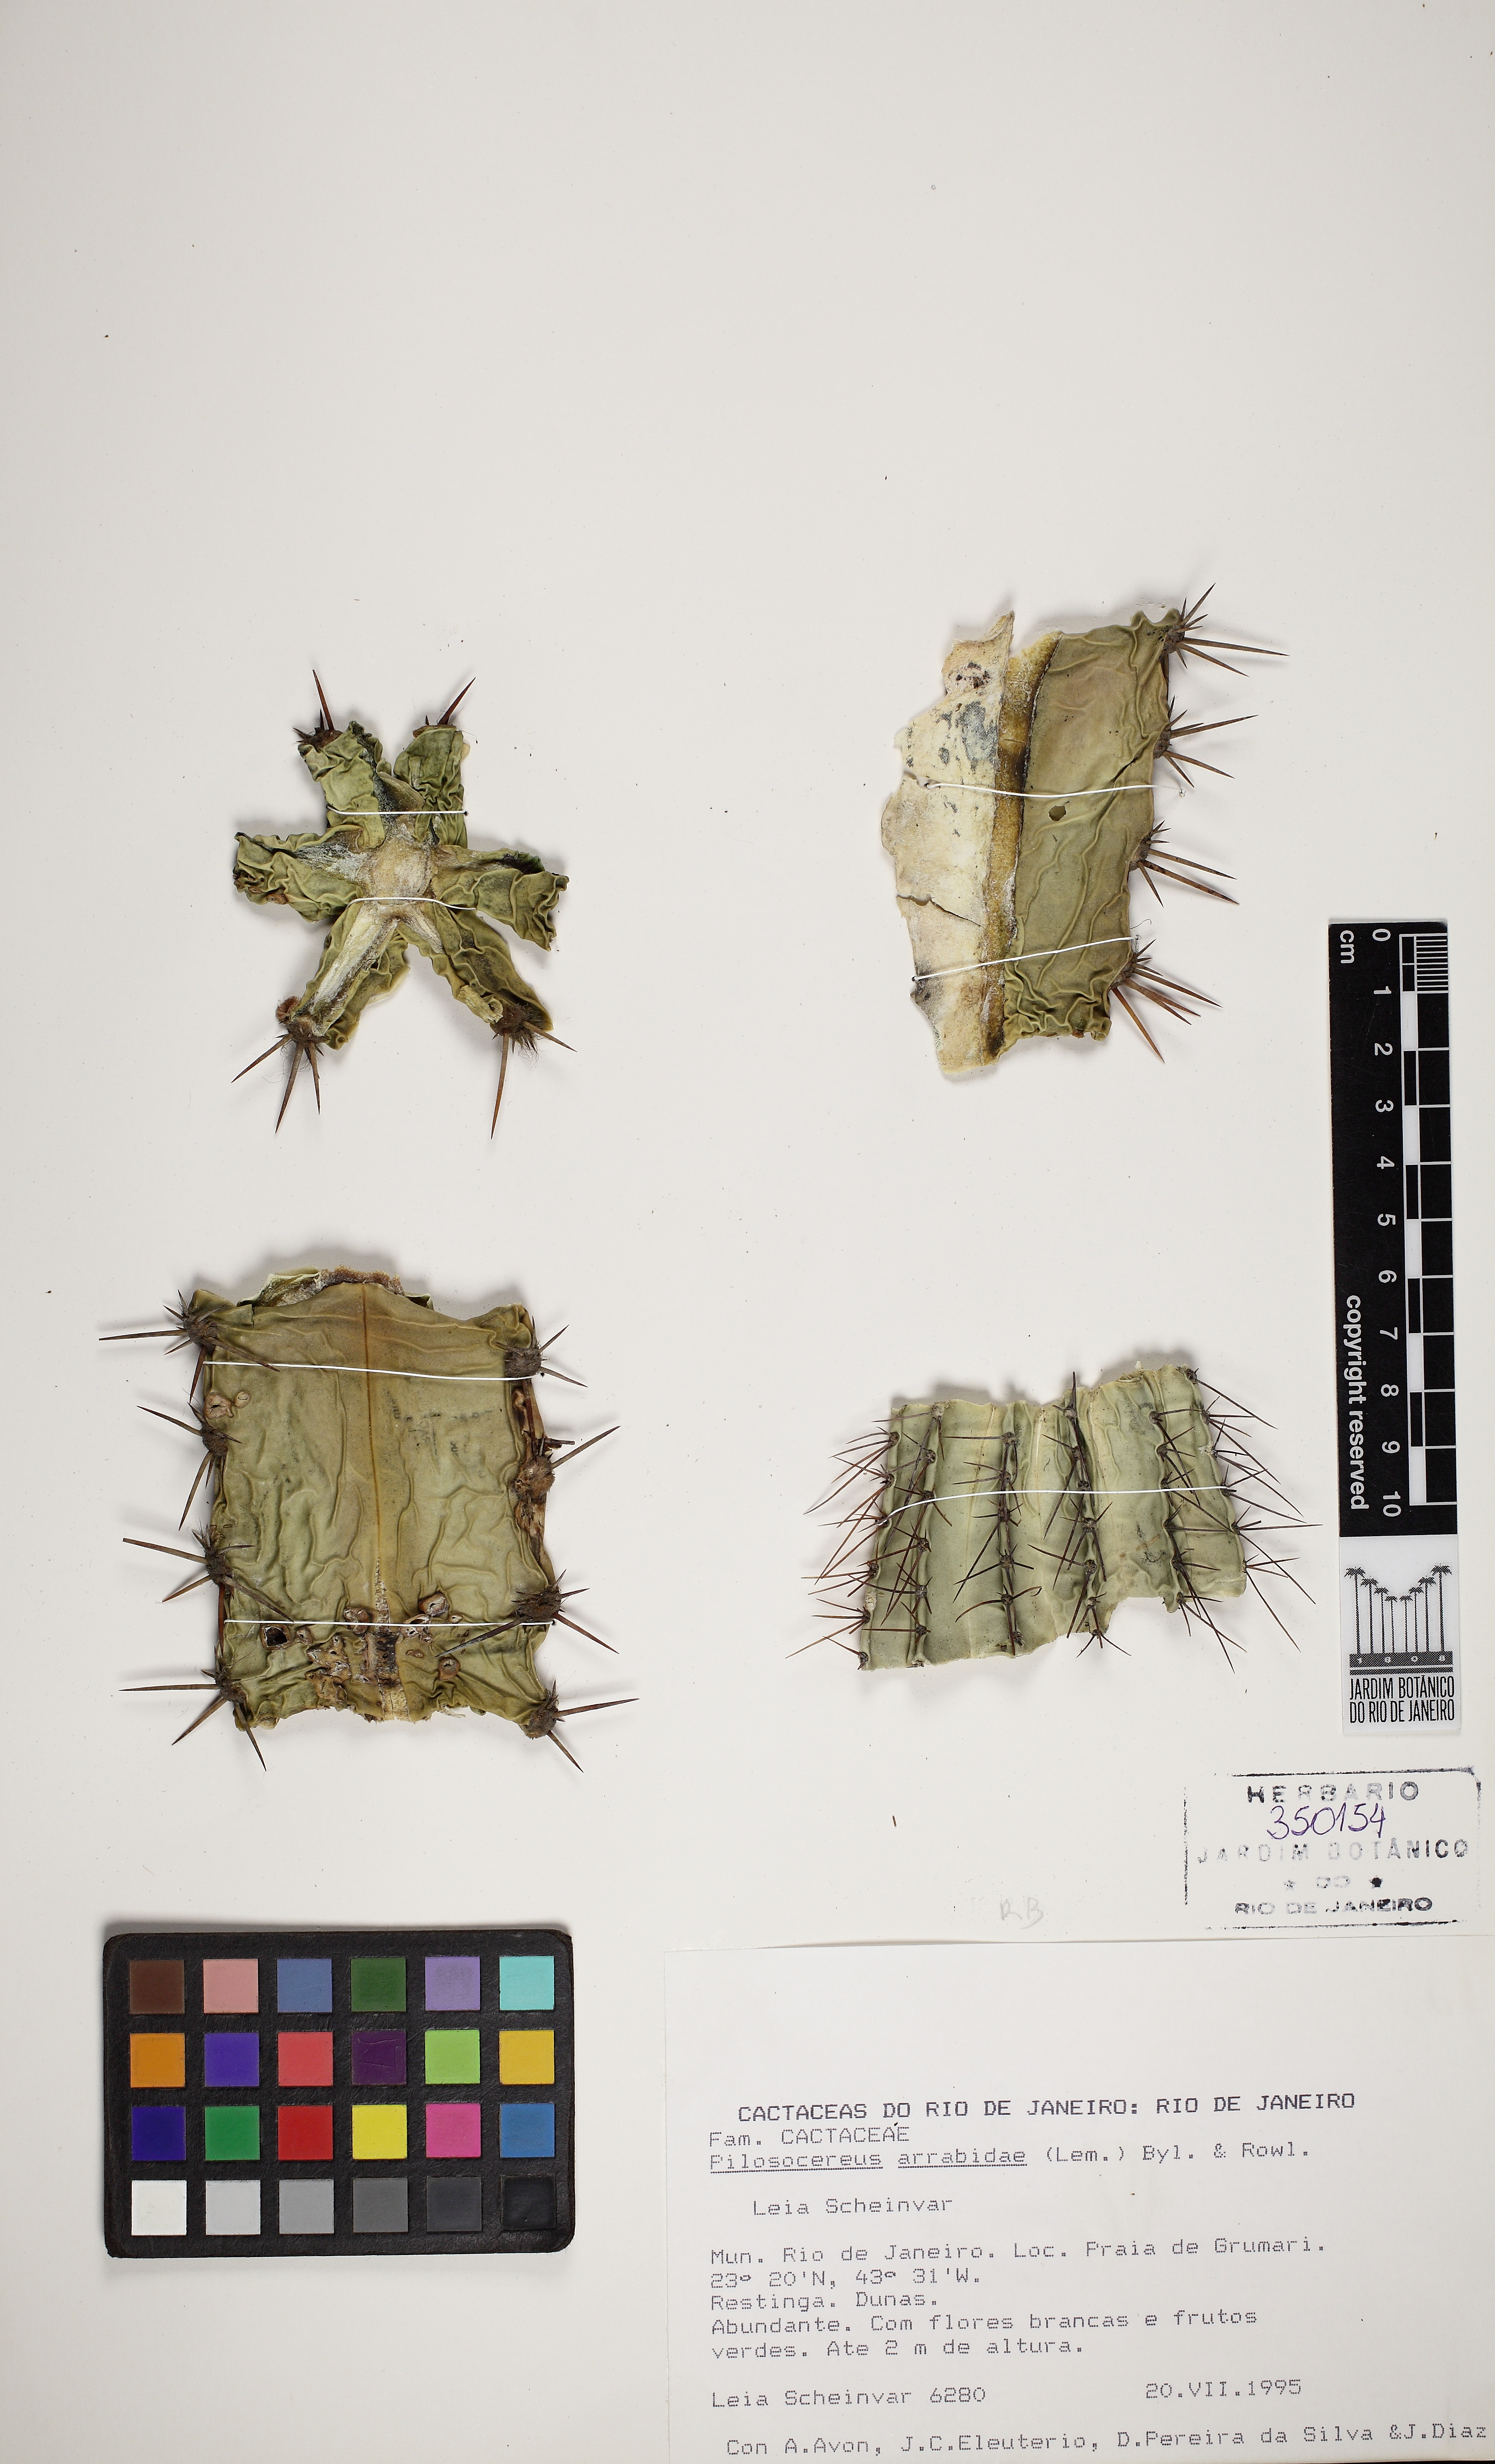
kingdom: Plantae
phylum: Tracheophyta
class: Magnoliopsida
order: Caryophyllales
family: Cactaceae
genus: Pilosocereus
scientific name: Pilosocereus arrabidae
